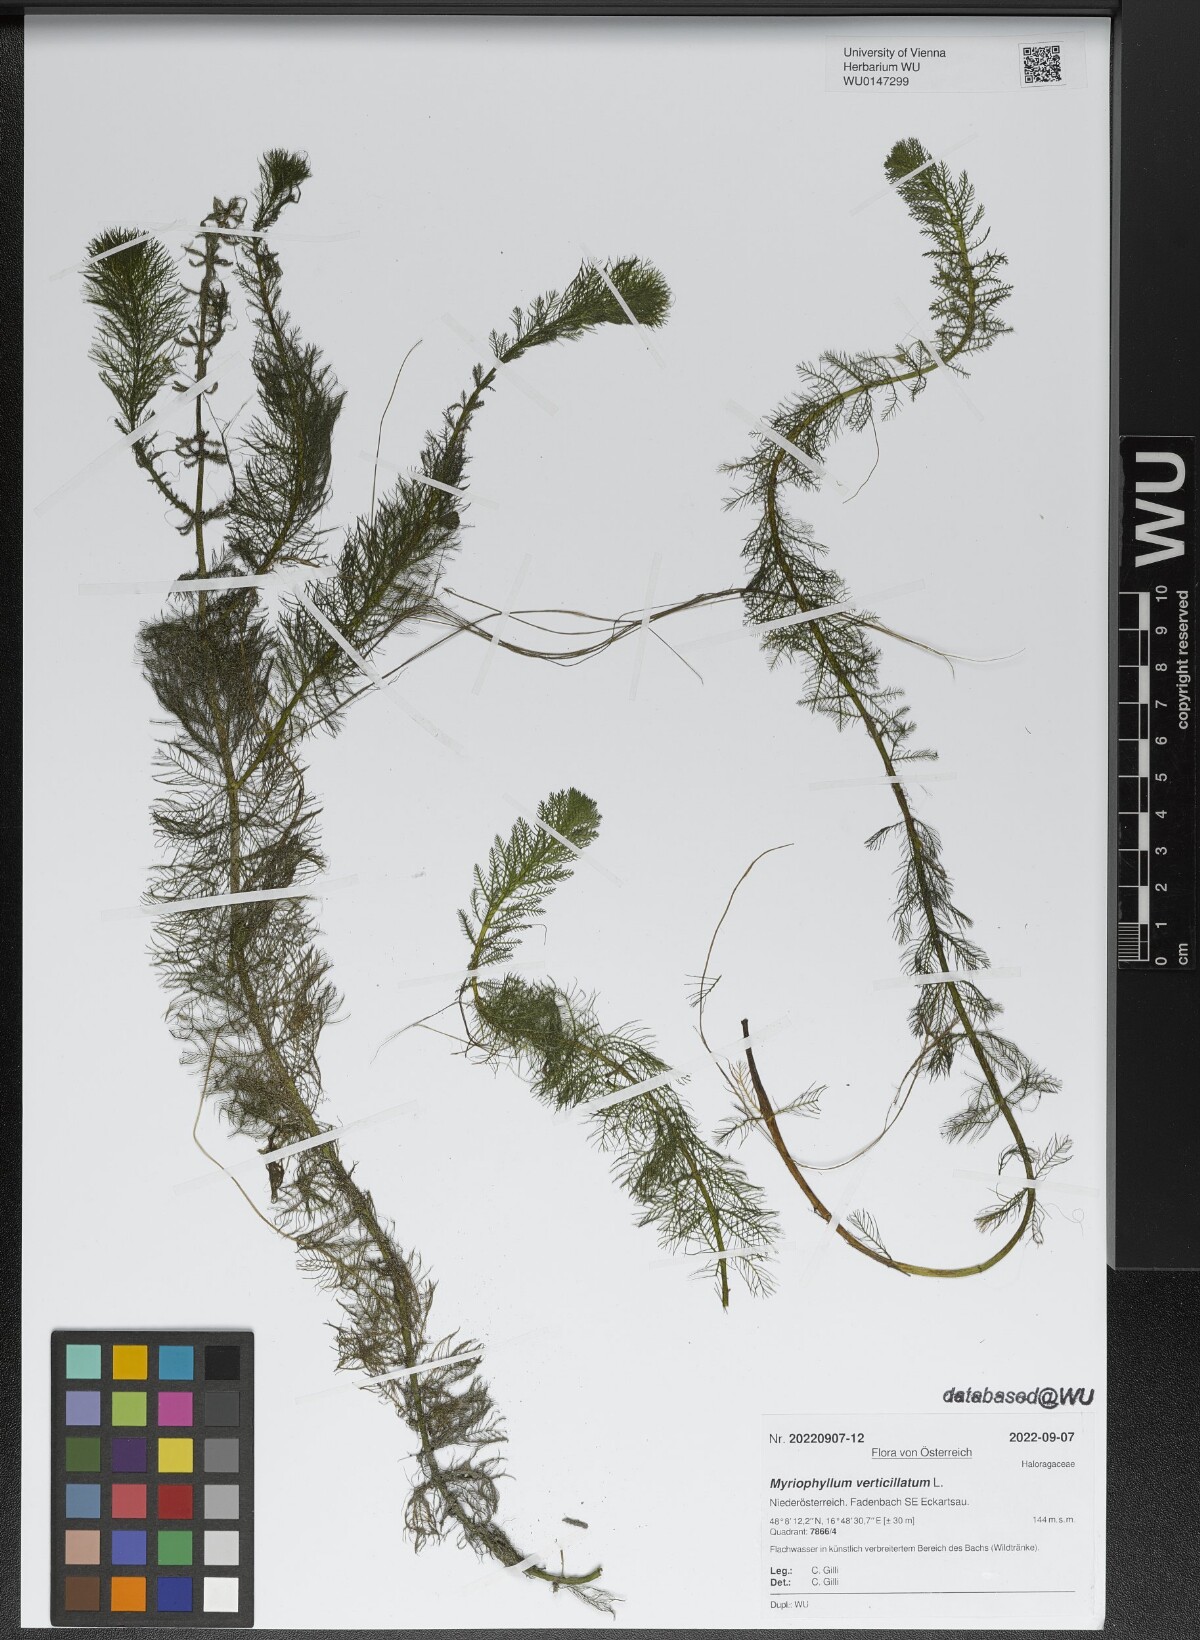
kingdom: Plantae
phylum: Tracheophyta
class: Magnoliopsida
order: Saxifragales
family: Haloragaceae
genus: Myriophyllum
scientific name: Myriophyllum verticillatum
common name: Whorled water-milfoil
